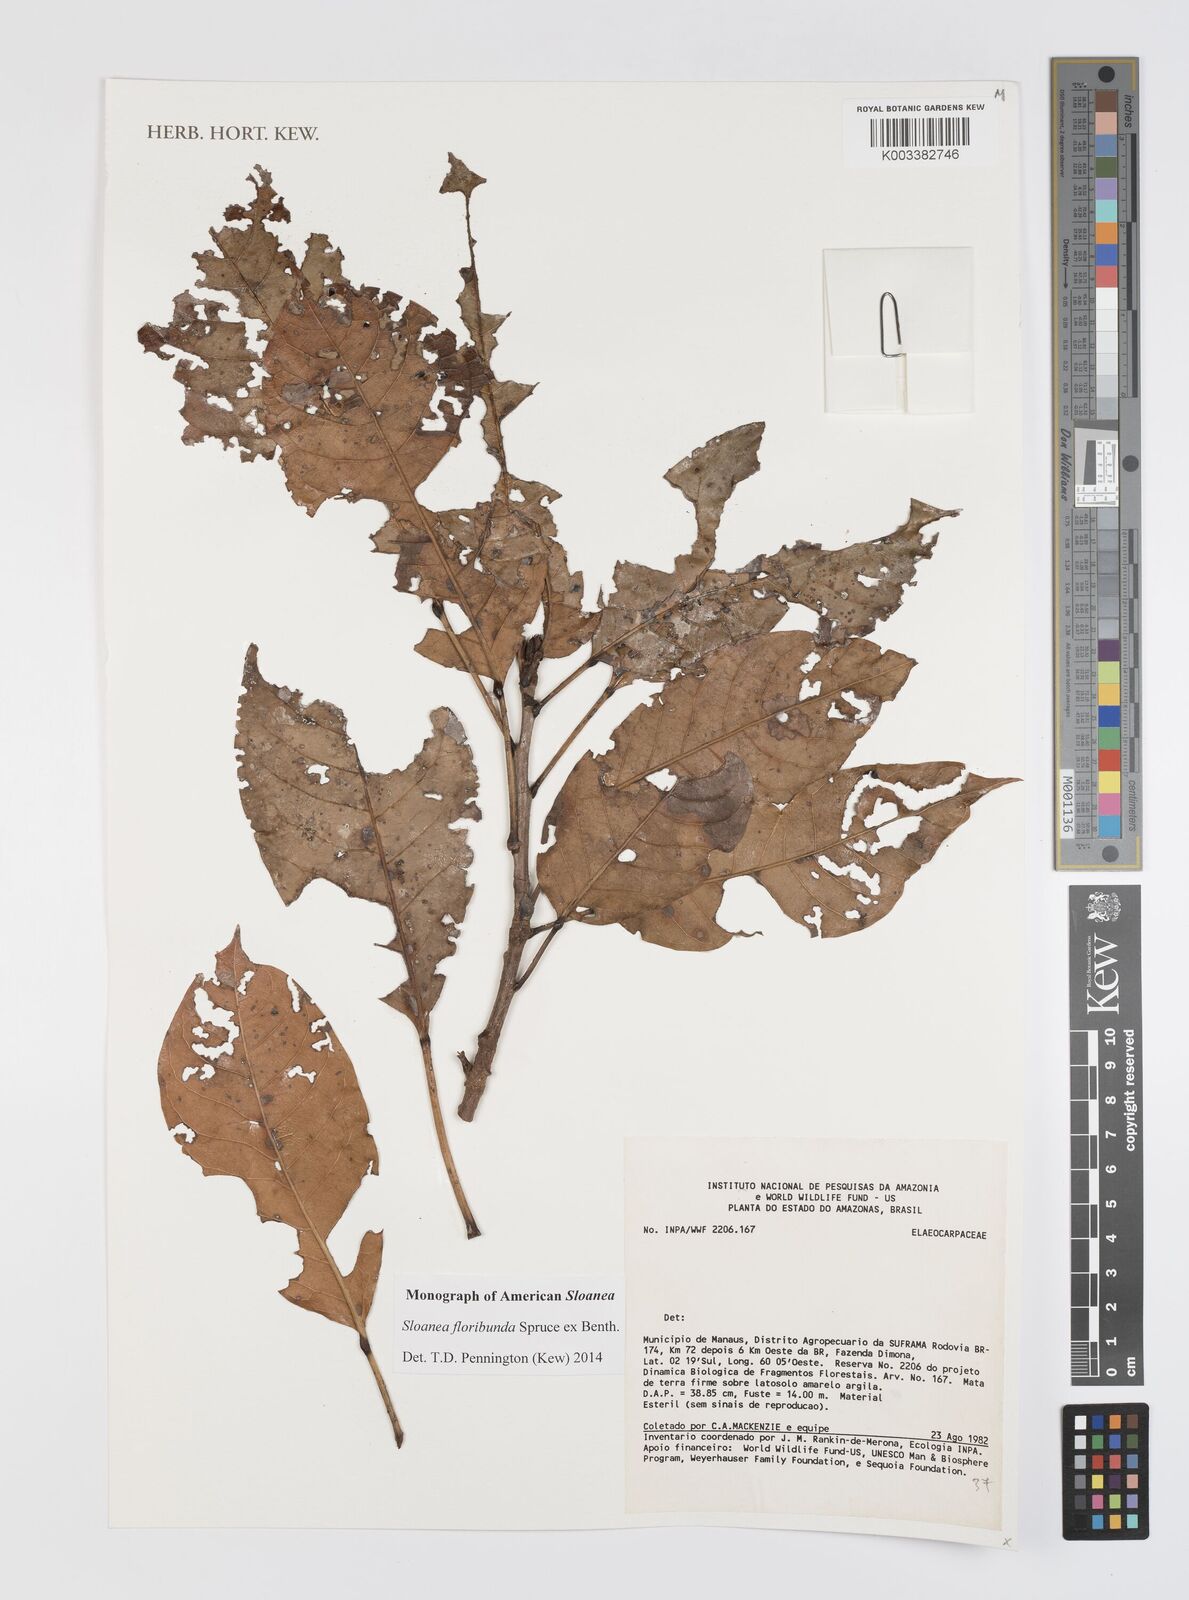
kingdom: Plantae
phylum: Tracheophyta
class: Magnoliopsida
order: Oxalidales
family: Elaeocarpaceae
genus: Sloanea
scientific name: Sloanea floribunda
